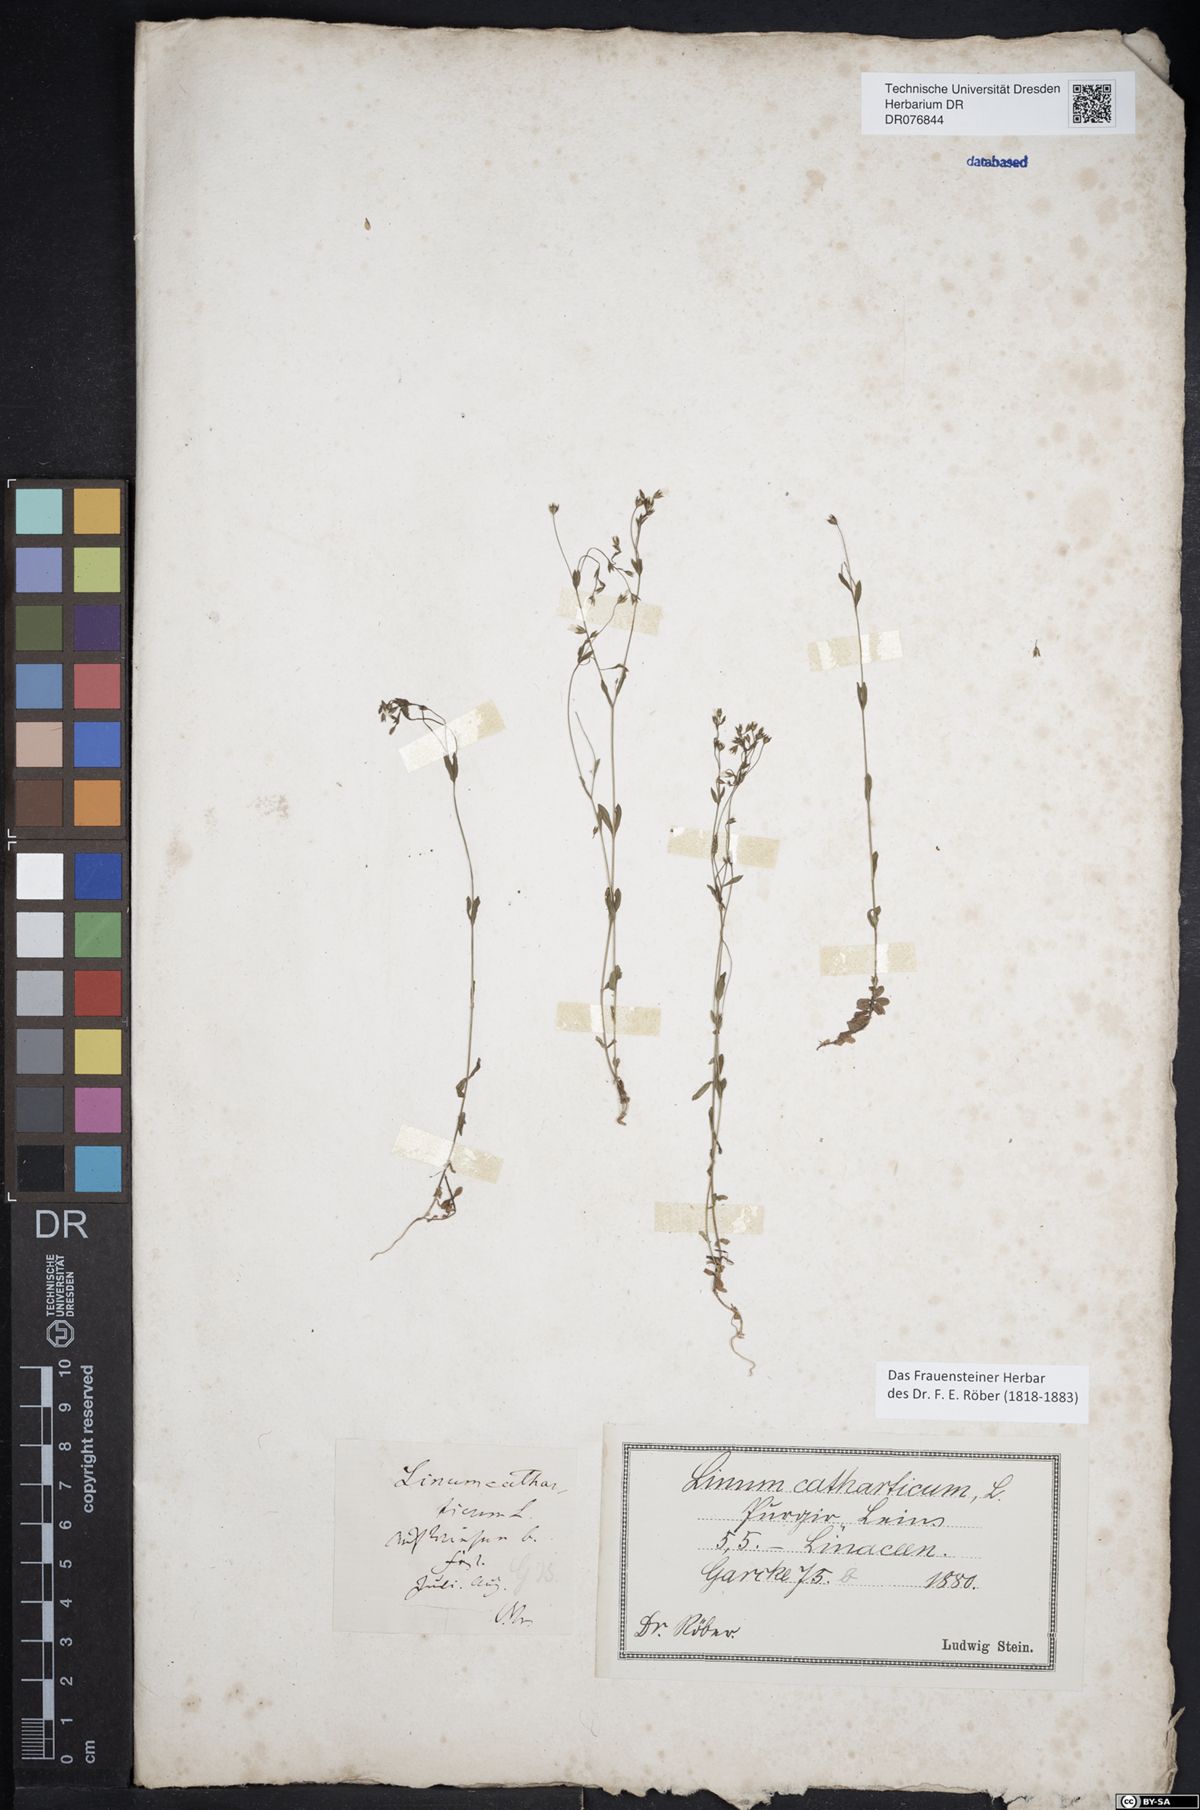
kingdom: Plantae
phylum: Tracheophyta
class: Magnoliopsida
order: Malpighiales
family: Linaceae
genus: Linum
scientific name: Linum catharticum
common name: Fairy flax
